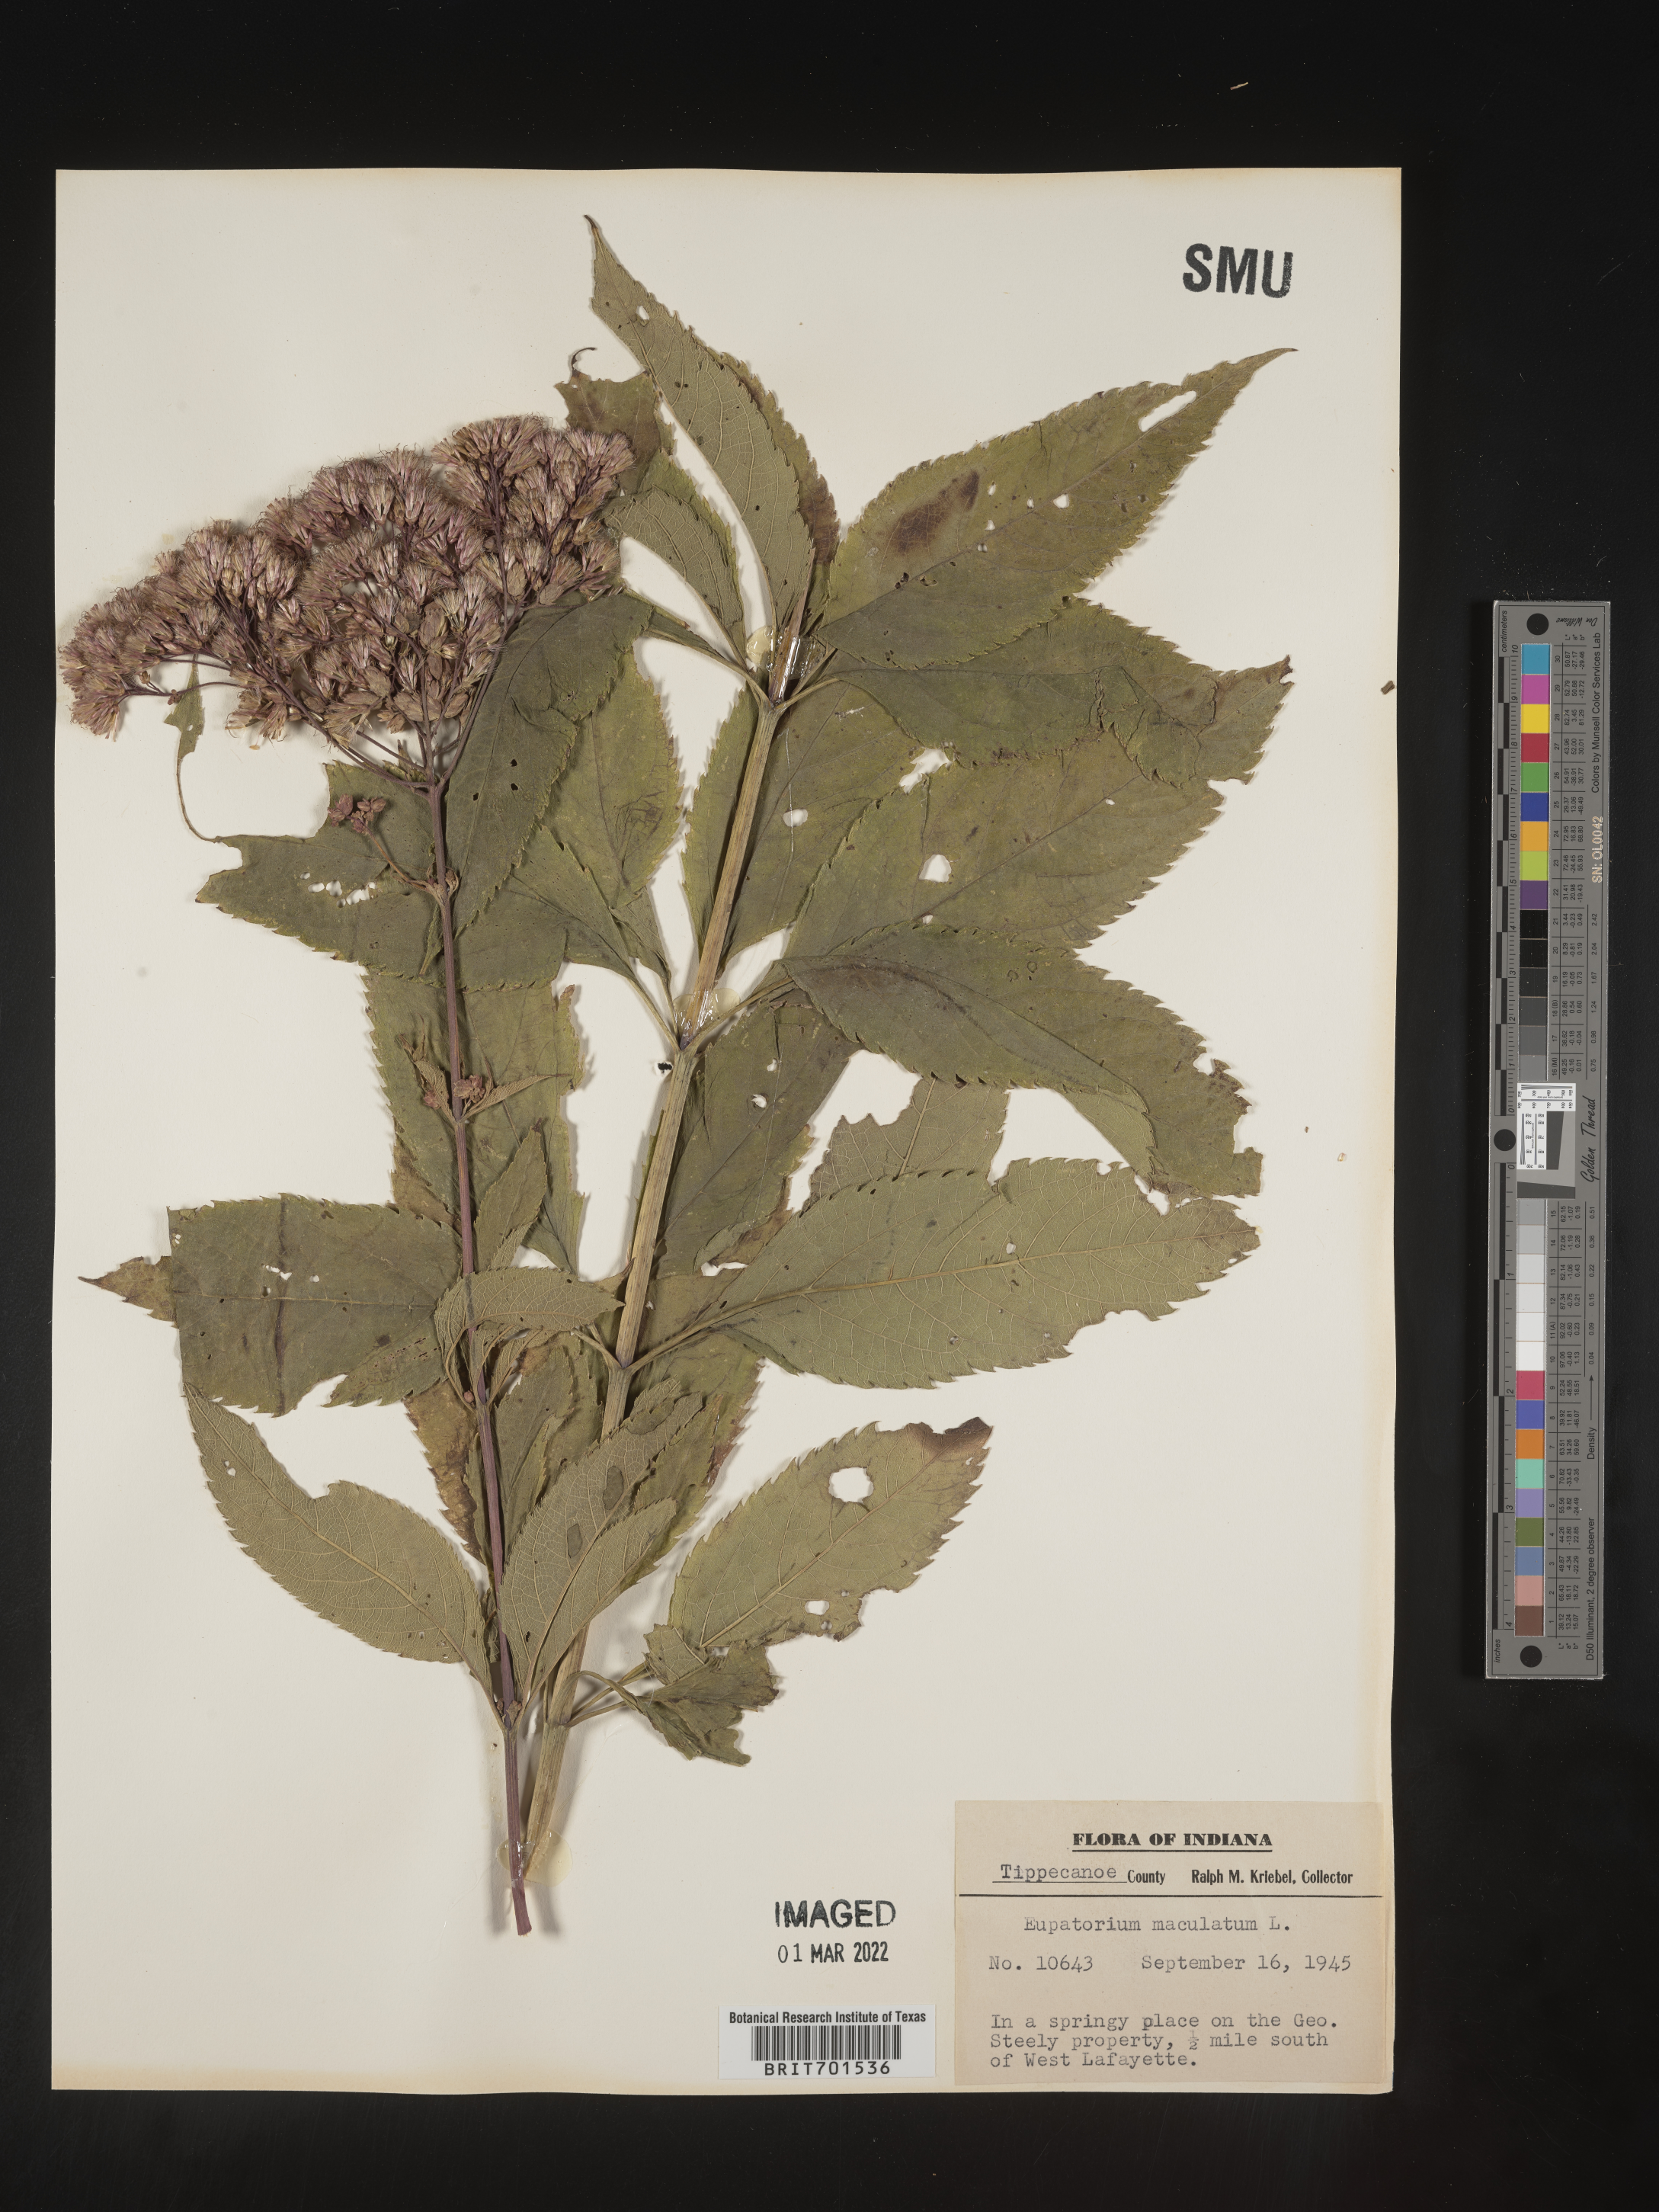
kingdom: Plantae
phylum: Tracheophyta
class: Magnoliopsida
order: Asterales
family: Asteraceae
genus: Eutrochium
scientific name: Eutrochium maculatum
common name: Spotted joe pye weed
